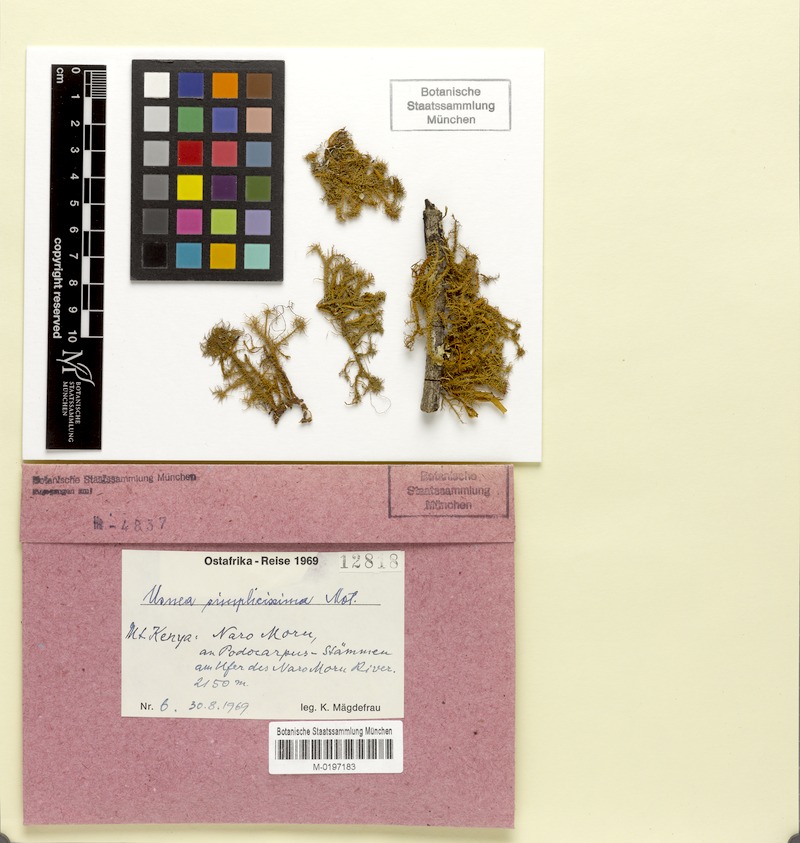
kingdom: Fungi
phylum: Ascomycota
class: Lecanoromycetes
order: Lecanorales
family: Parmeliaceae
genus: Usnea
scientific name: Usnea
